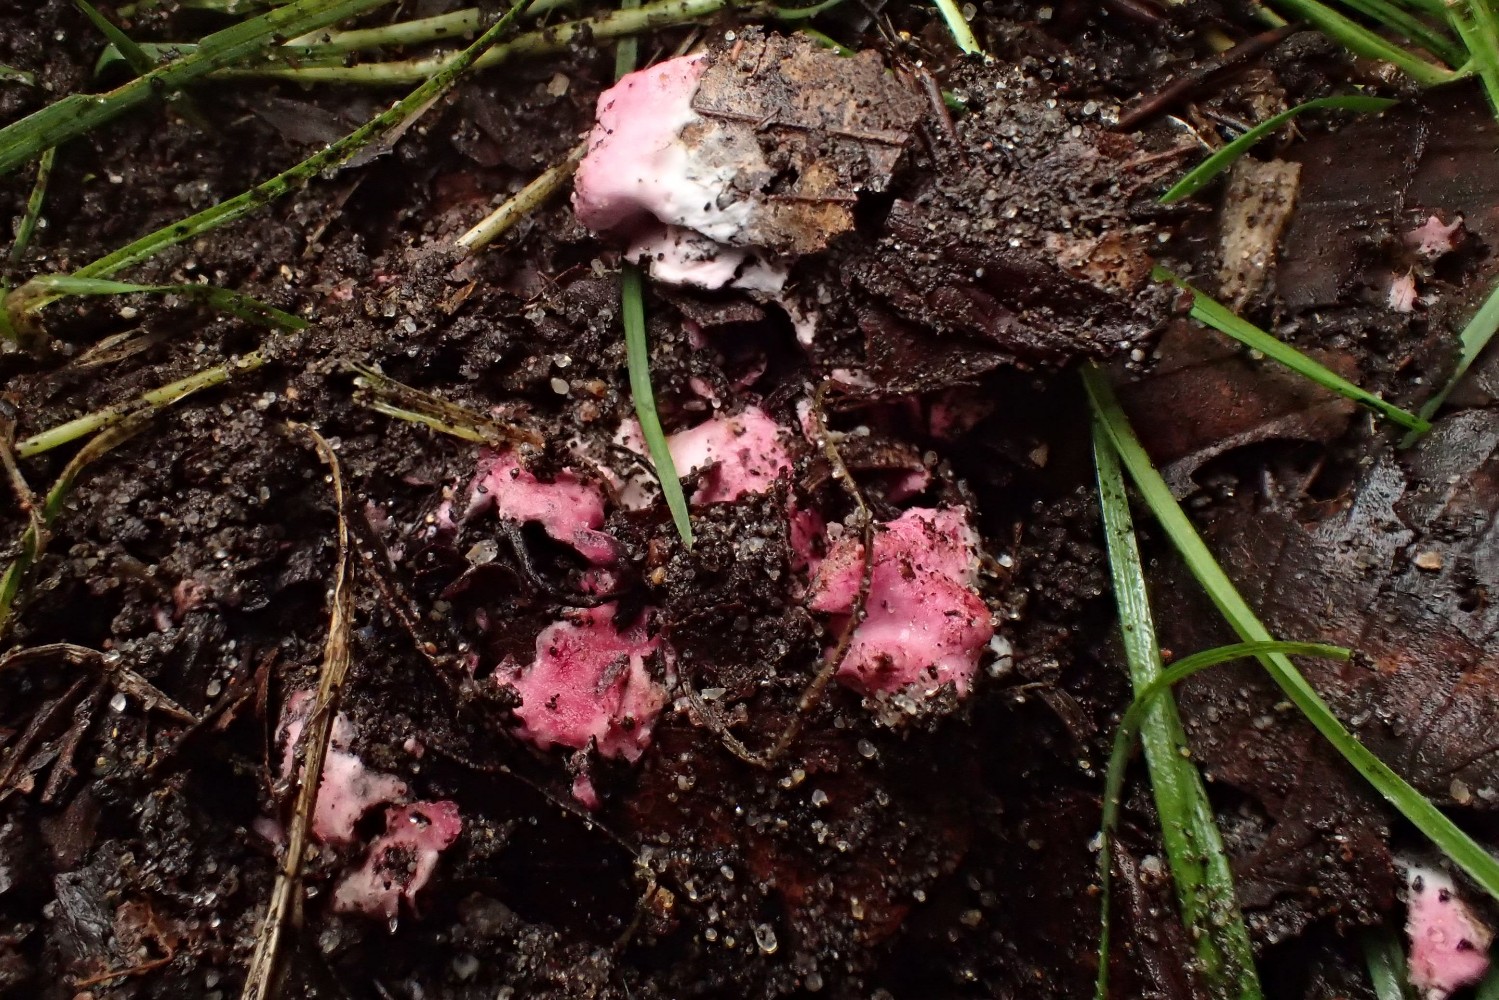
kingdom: Fungi
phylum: Ascomycota
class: Sordariomycetes
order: Hypocreales
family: Hypocreaceae
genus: Hypomyces
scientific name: Hypomyces rosellus
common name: rosa snylteskorpe
